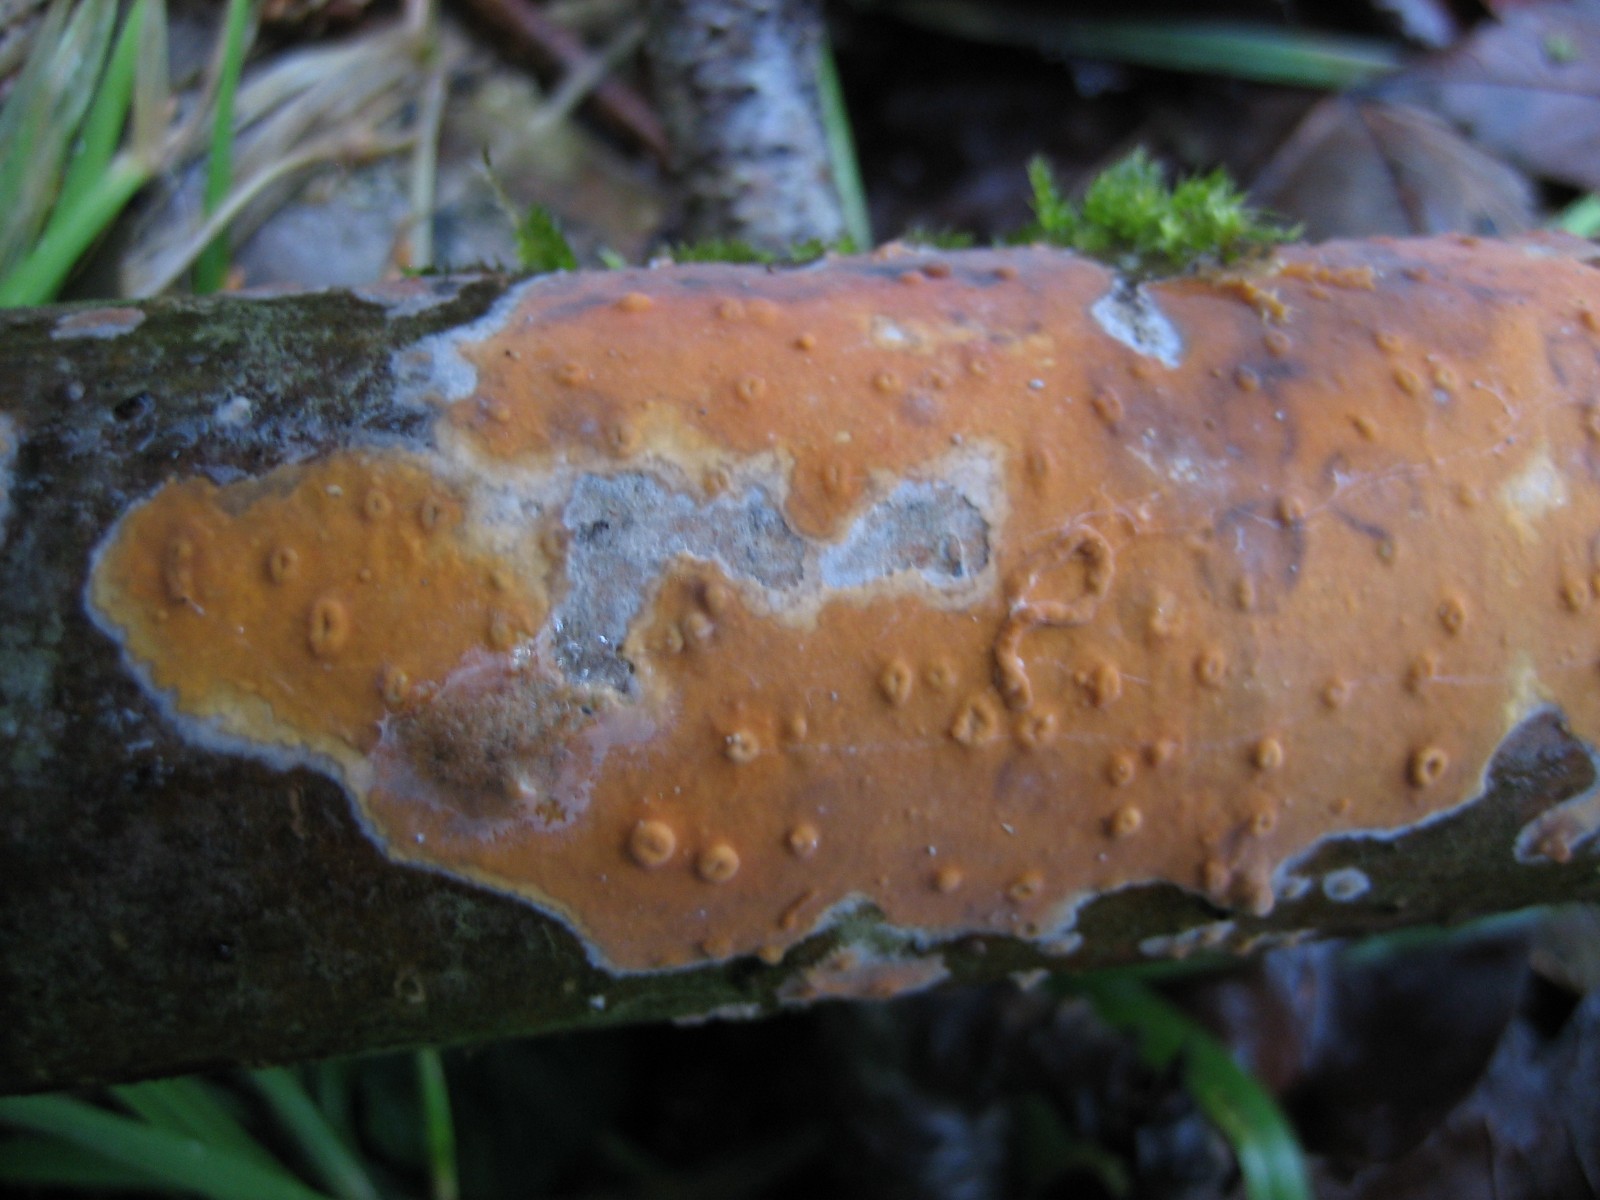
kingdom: Fungi
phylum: Basidiomycota
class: Agaricomycetes
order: Russulales
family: Peniophoraceae
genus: Peniophora
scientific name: Peniophora incarnata
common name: laksefarvet voksskind
